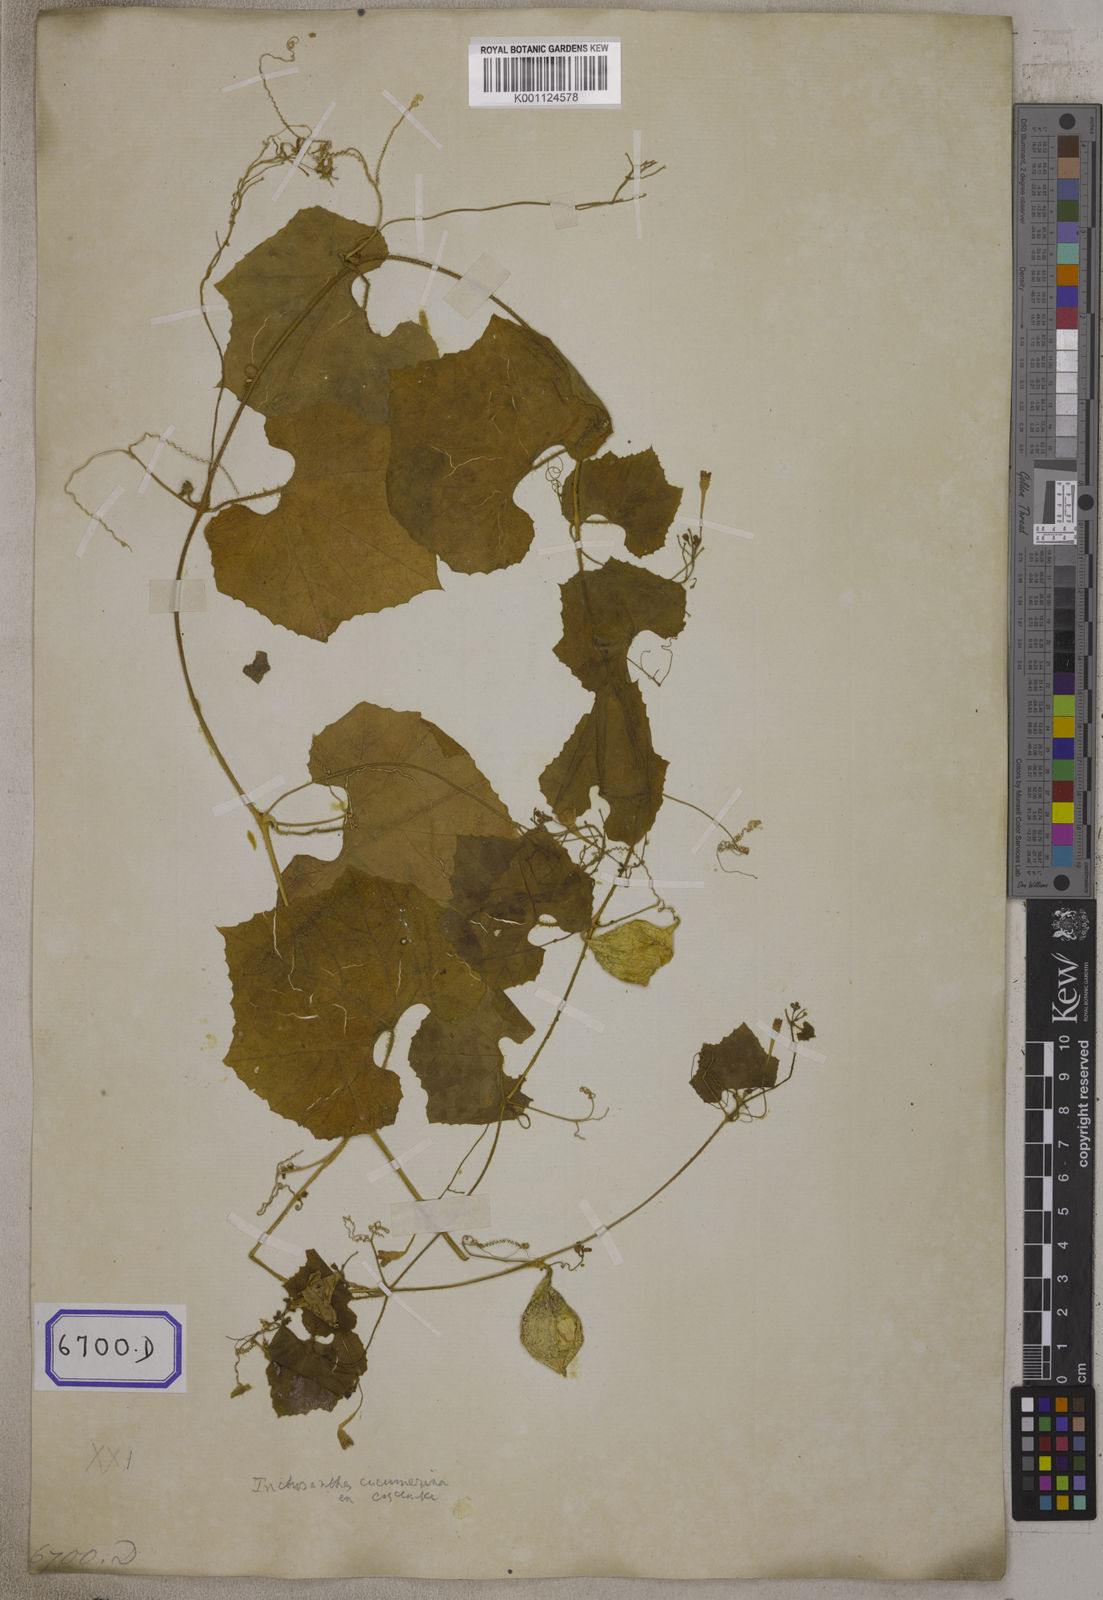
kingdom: Plantae
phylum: Tracheophyta
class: Magnoliopsida
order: Cucurbitales
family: Cucurbitaceae
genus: Bryonia
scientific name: Bryonia
